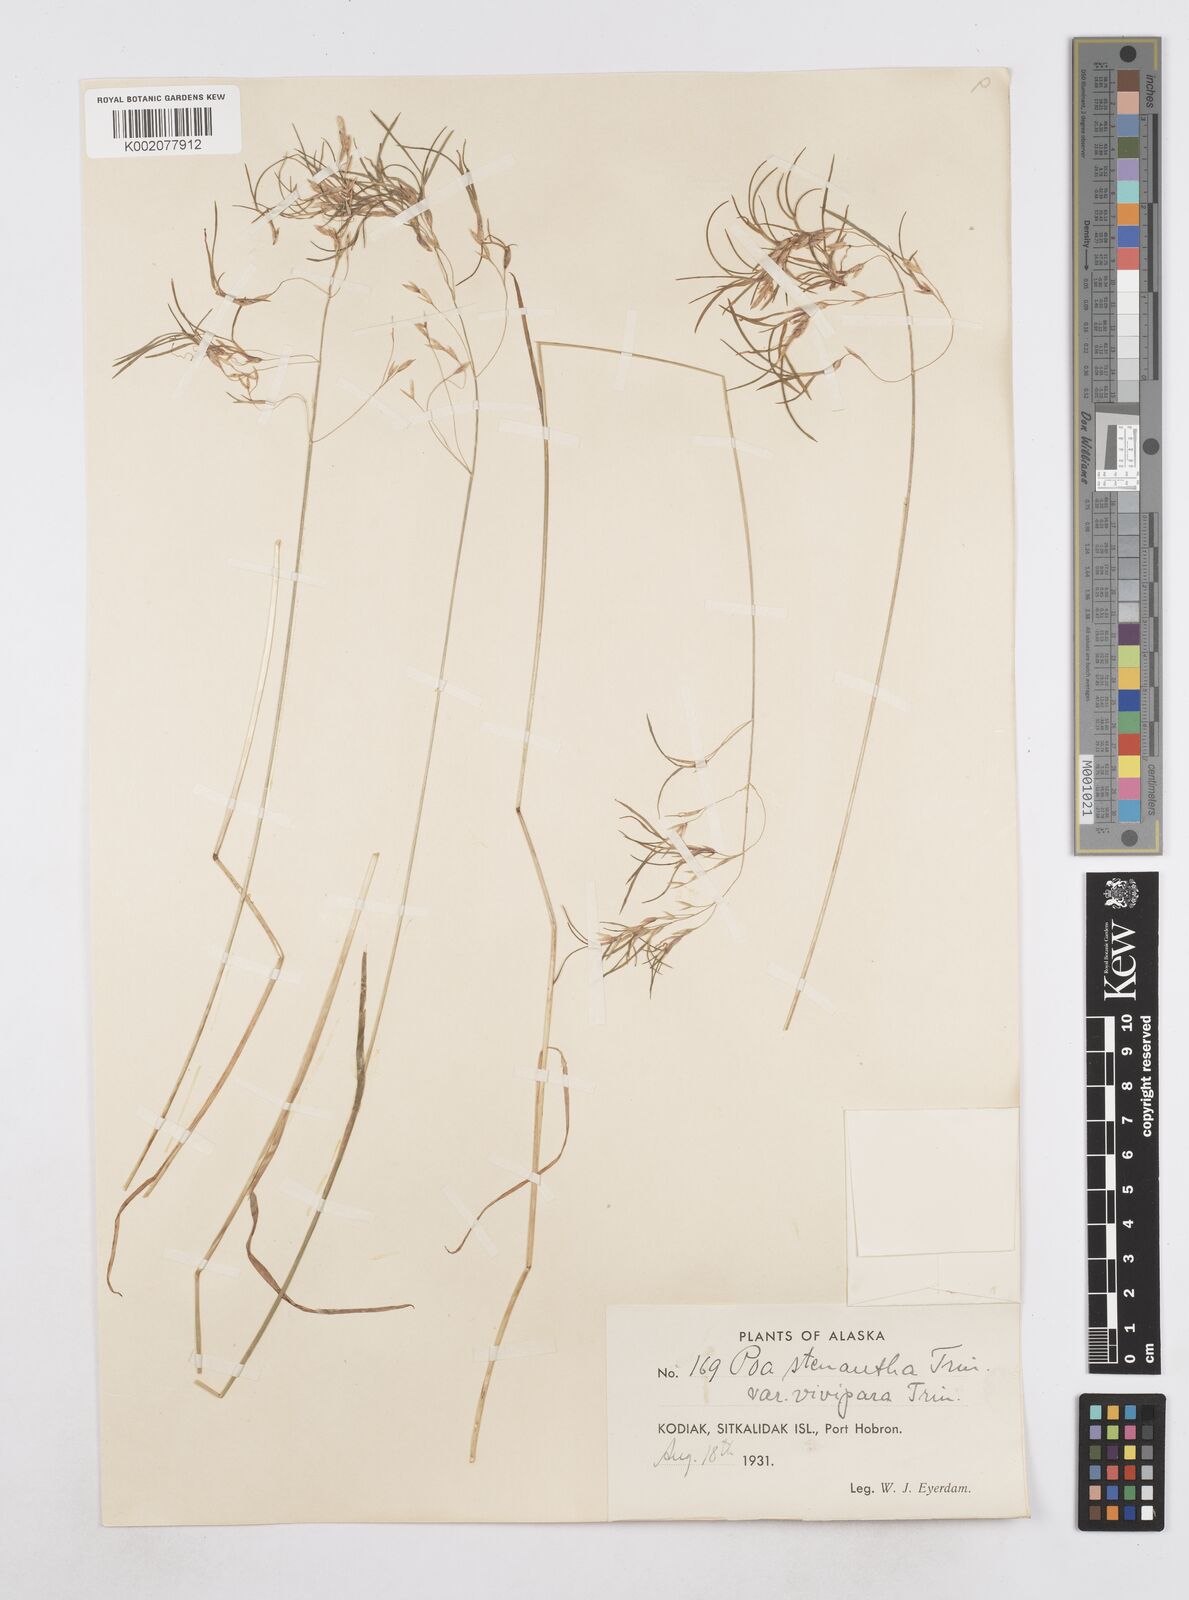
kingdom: Plantae
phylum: Tracheophyta
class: Liliopsida
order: Poales
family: Poaceae
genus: Poa
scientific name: Poa stenantha
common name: Narrow-flowered bluegrass
